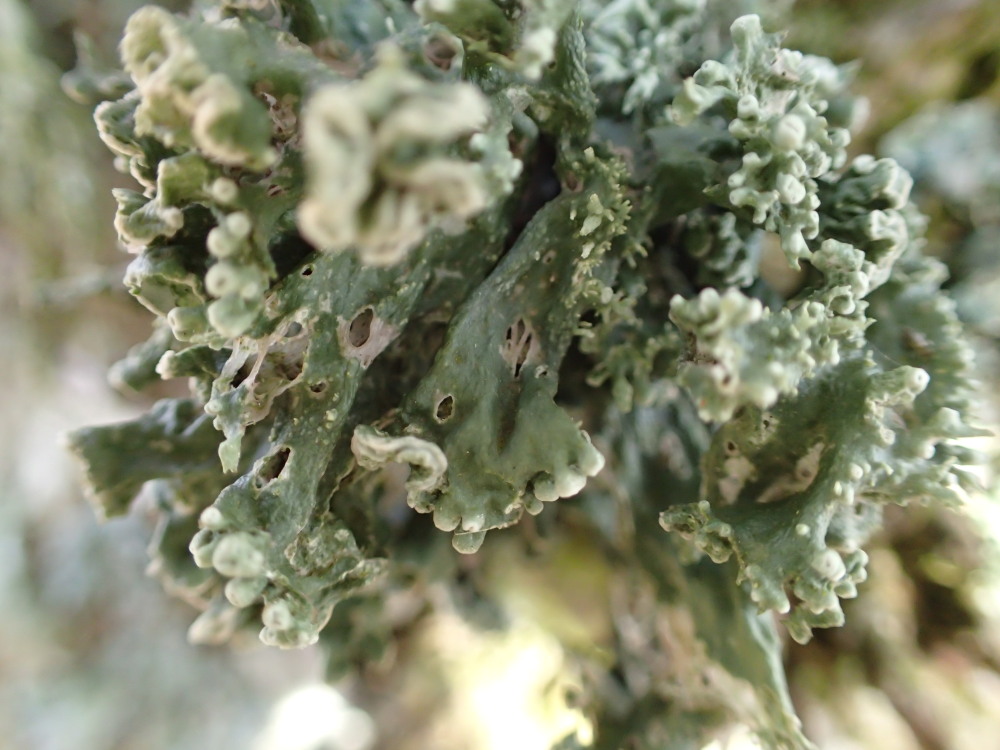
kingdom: Fungi
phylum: Ascomycota
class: Lecanoromycetes
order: Lecanorales
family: Ramalinaceae
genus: Ramalina
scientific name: Ramalina fastigiata
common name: tue-grenlav
